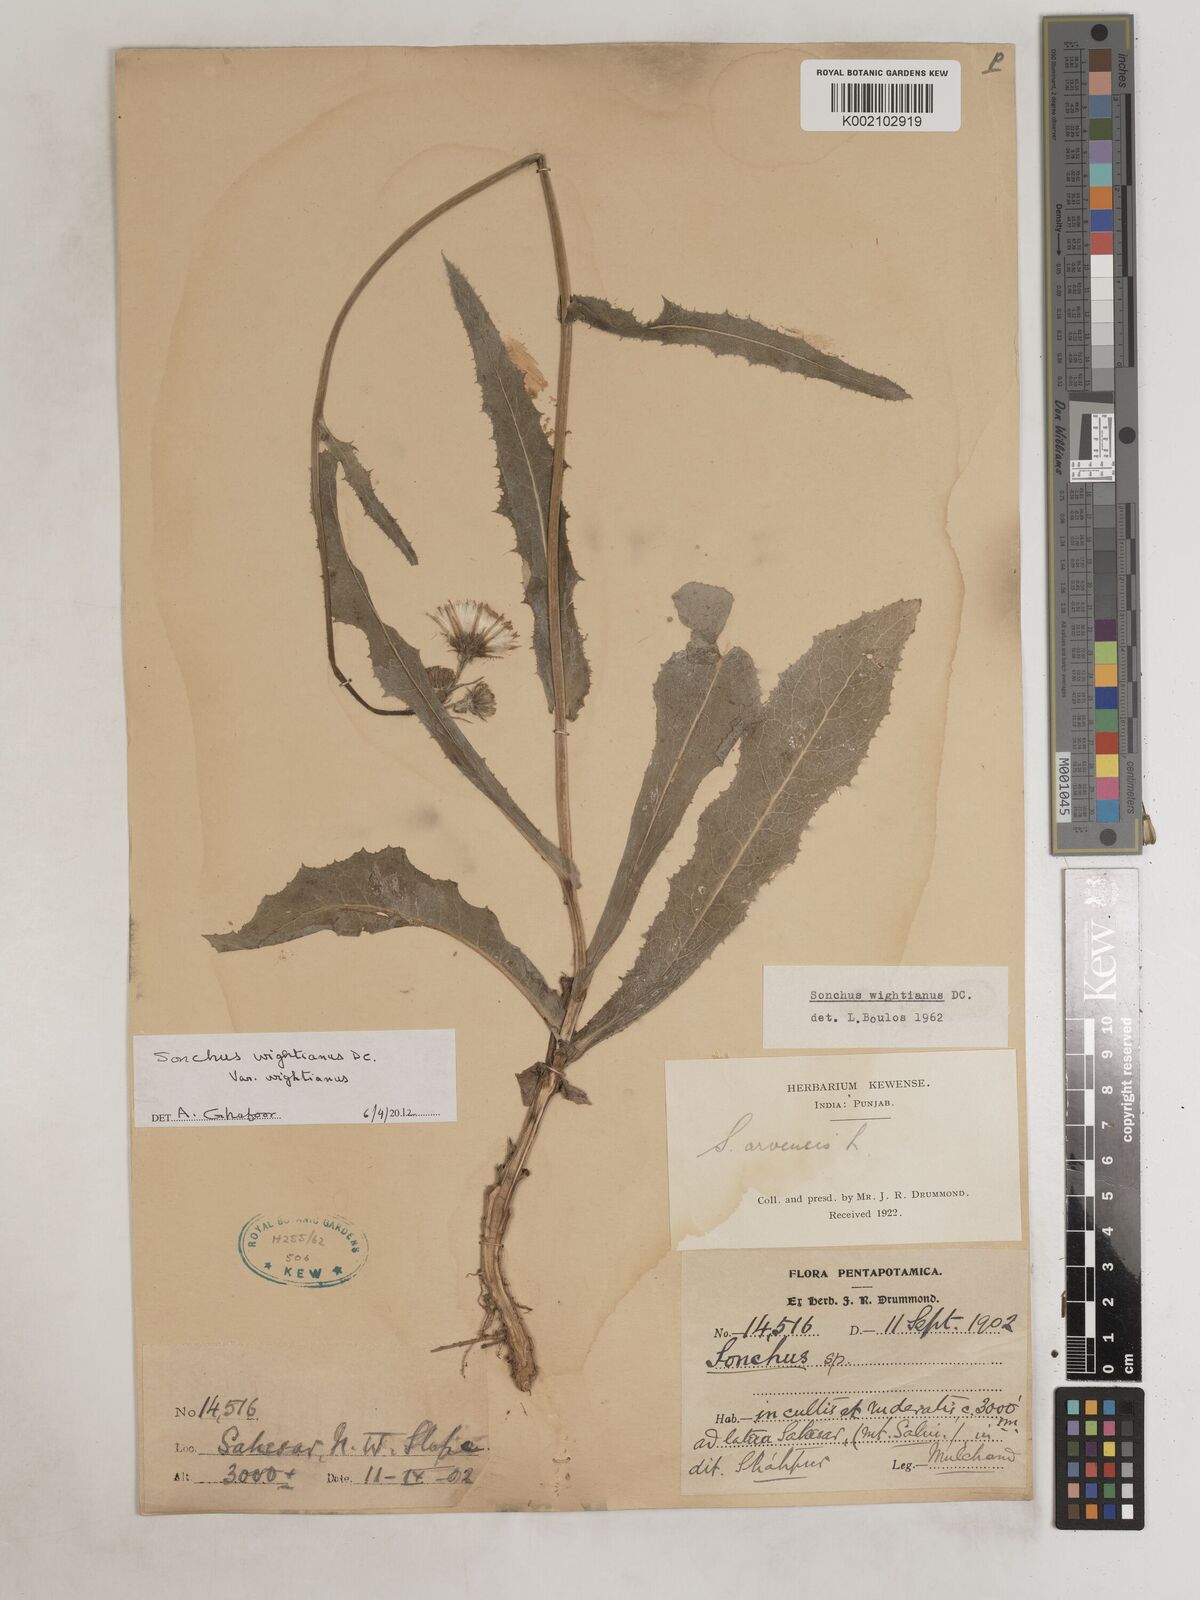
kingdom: Plantae
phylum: Tracheophyta
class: Magnoliopsida
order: Asterales
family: Asteraceae
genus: Sonchus
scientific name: Sonchus arvensis
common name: Perennial sow-thistle
